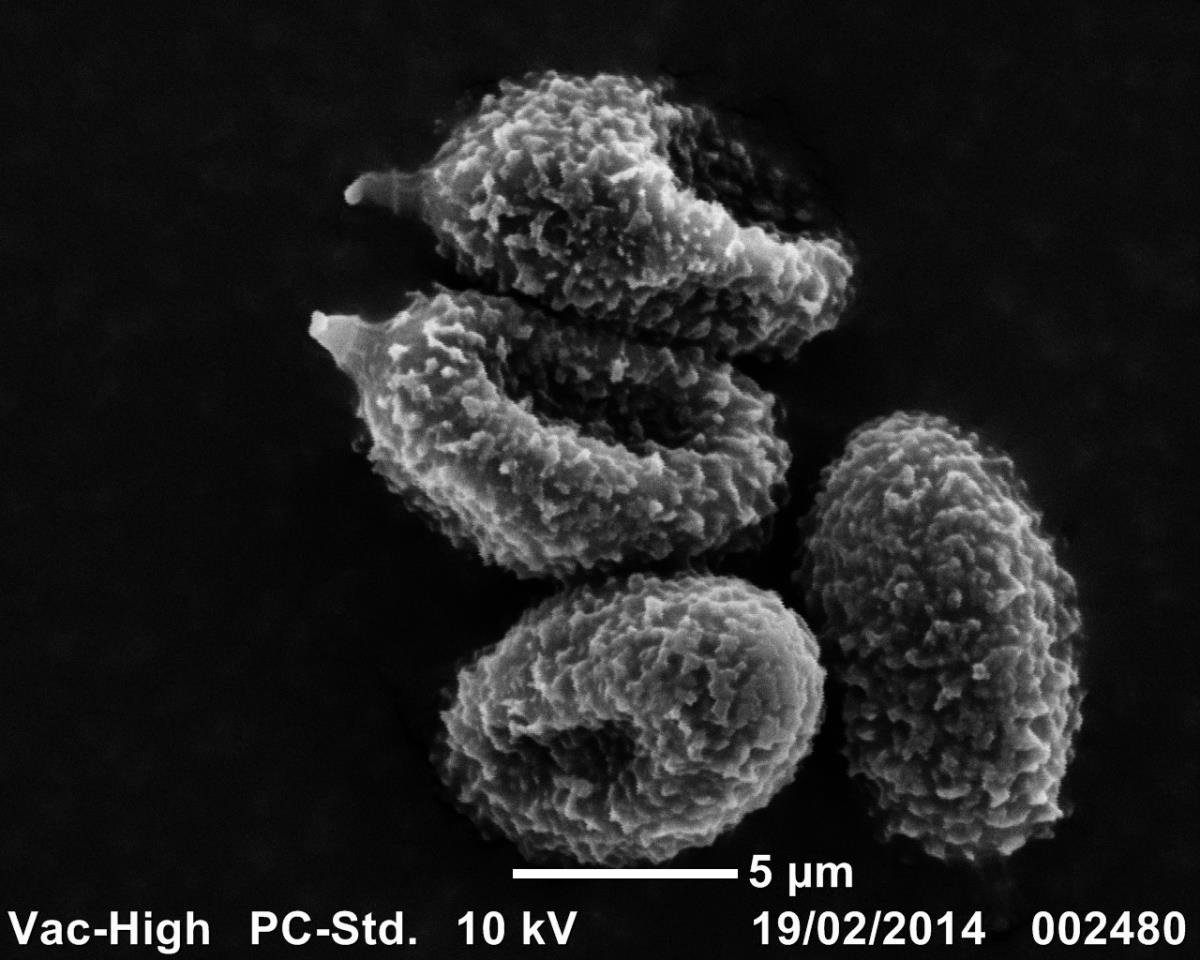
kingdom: Fungi
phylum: Basidiomycota
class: Agaricomycetes
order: Agaricales
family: Cortinariaceae
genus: Cortinarius
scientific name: Cortinarius
